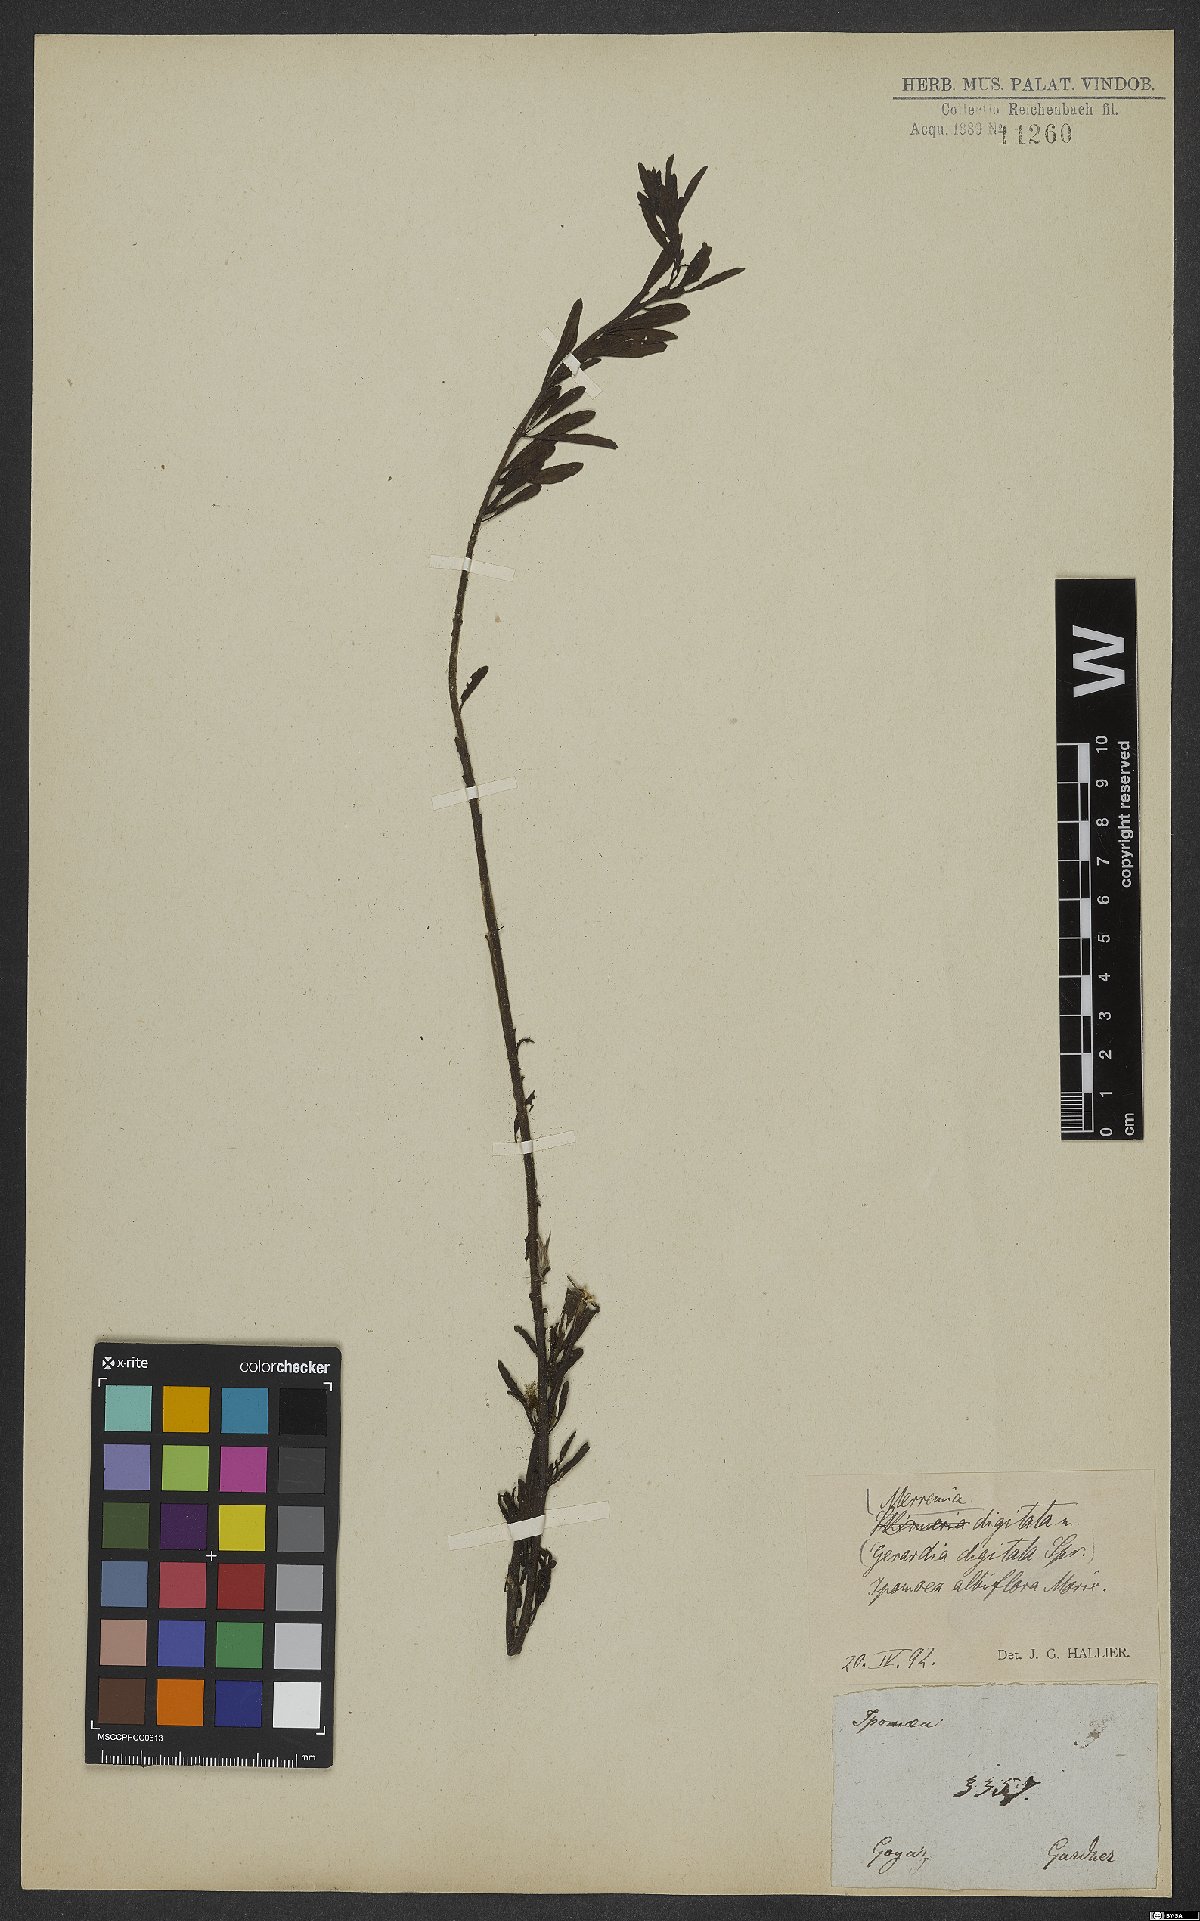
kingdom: Plantae
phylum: Tracheophyta
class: Magnoliopsida
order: Solanales
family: Convolvulaceae
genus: Distimake
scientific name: Distimake digitatus
